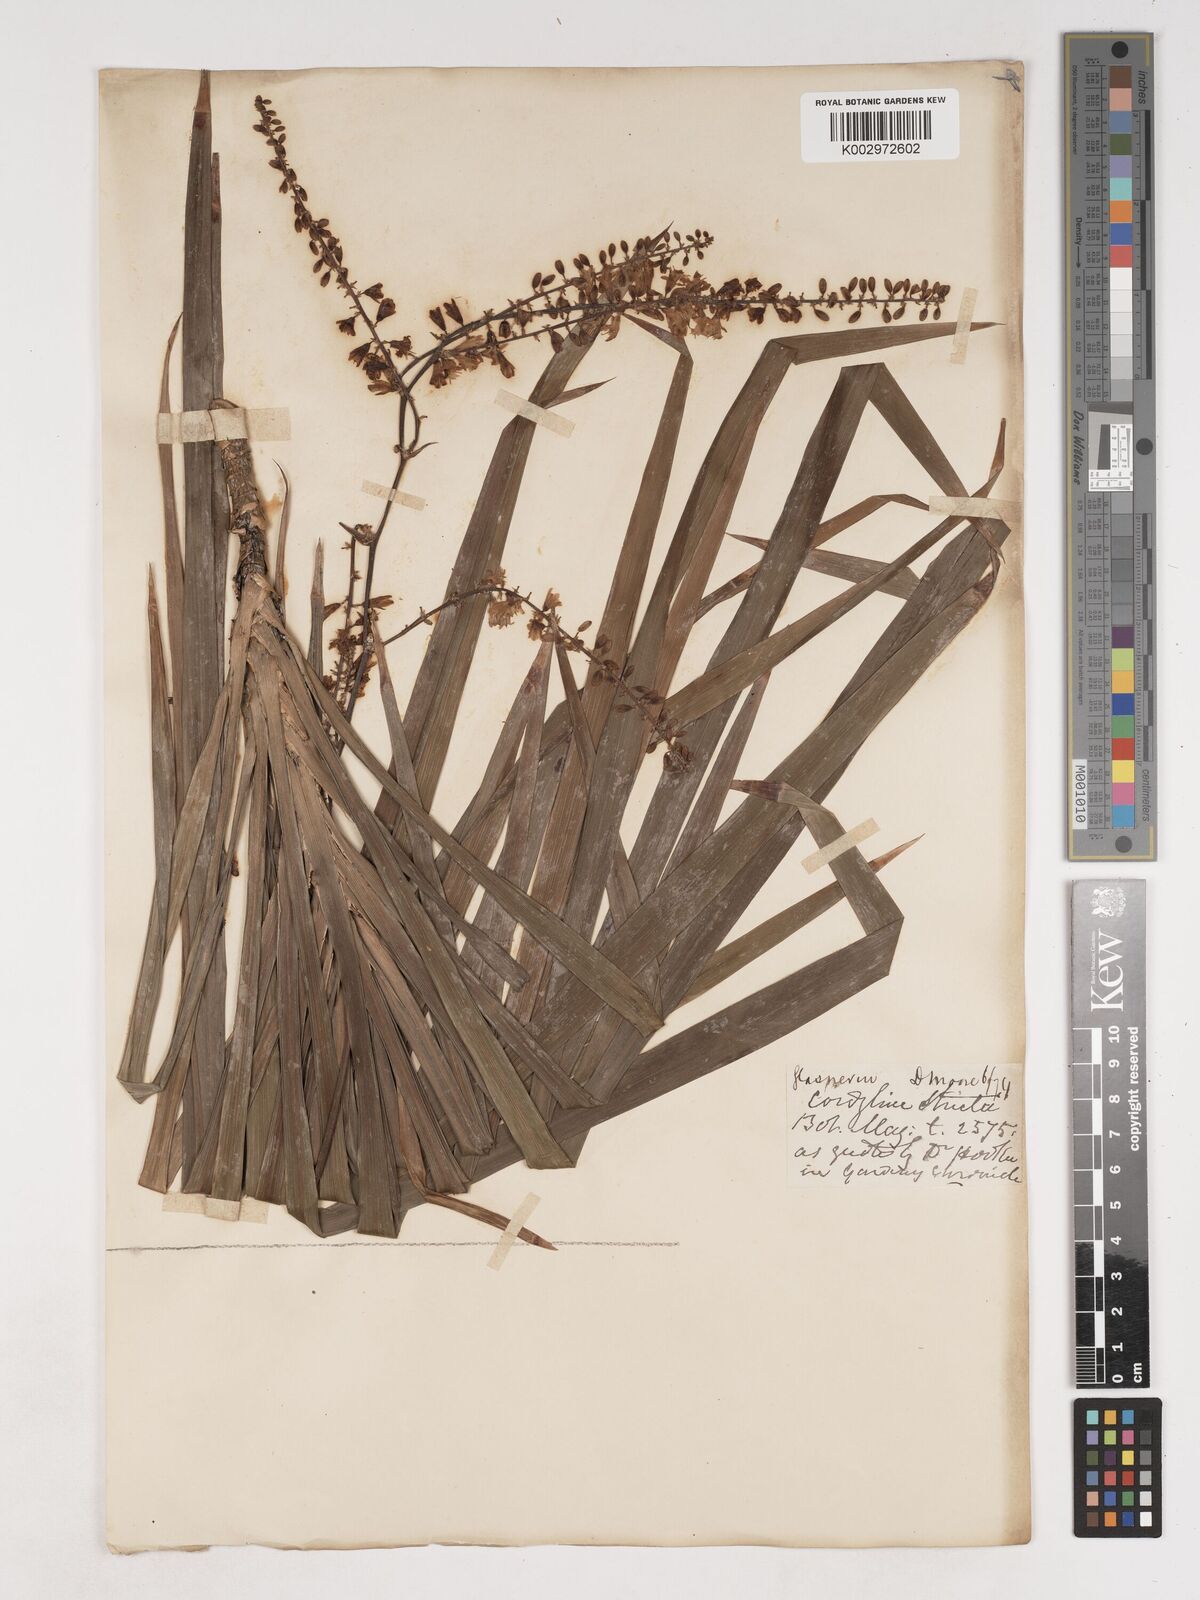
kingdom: Plantae
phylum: Tracheophyta
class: Liliopsida
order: Asparagales
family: Asparagaceae
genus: Cordyline
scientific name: Cordyline stricta
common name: Narrow-leaf palm-lily
